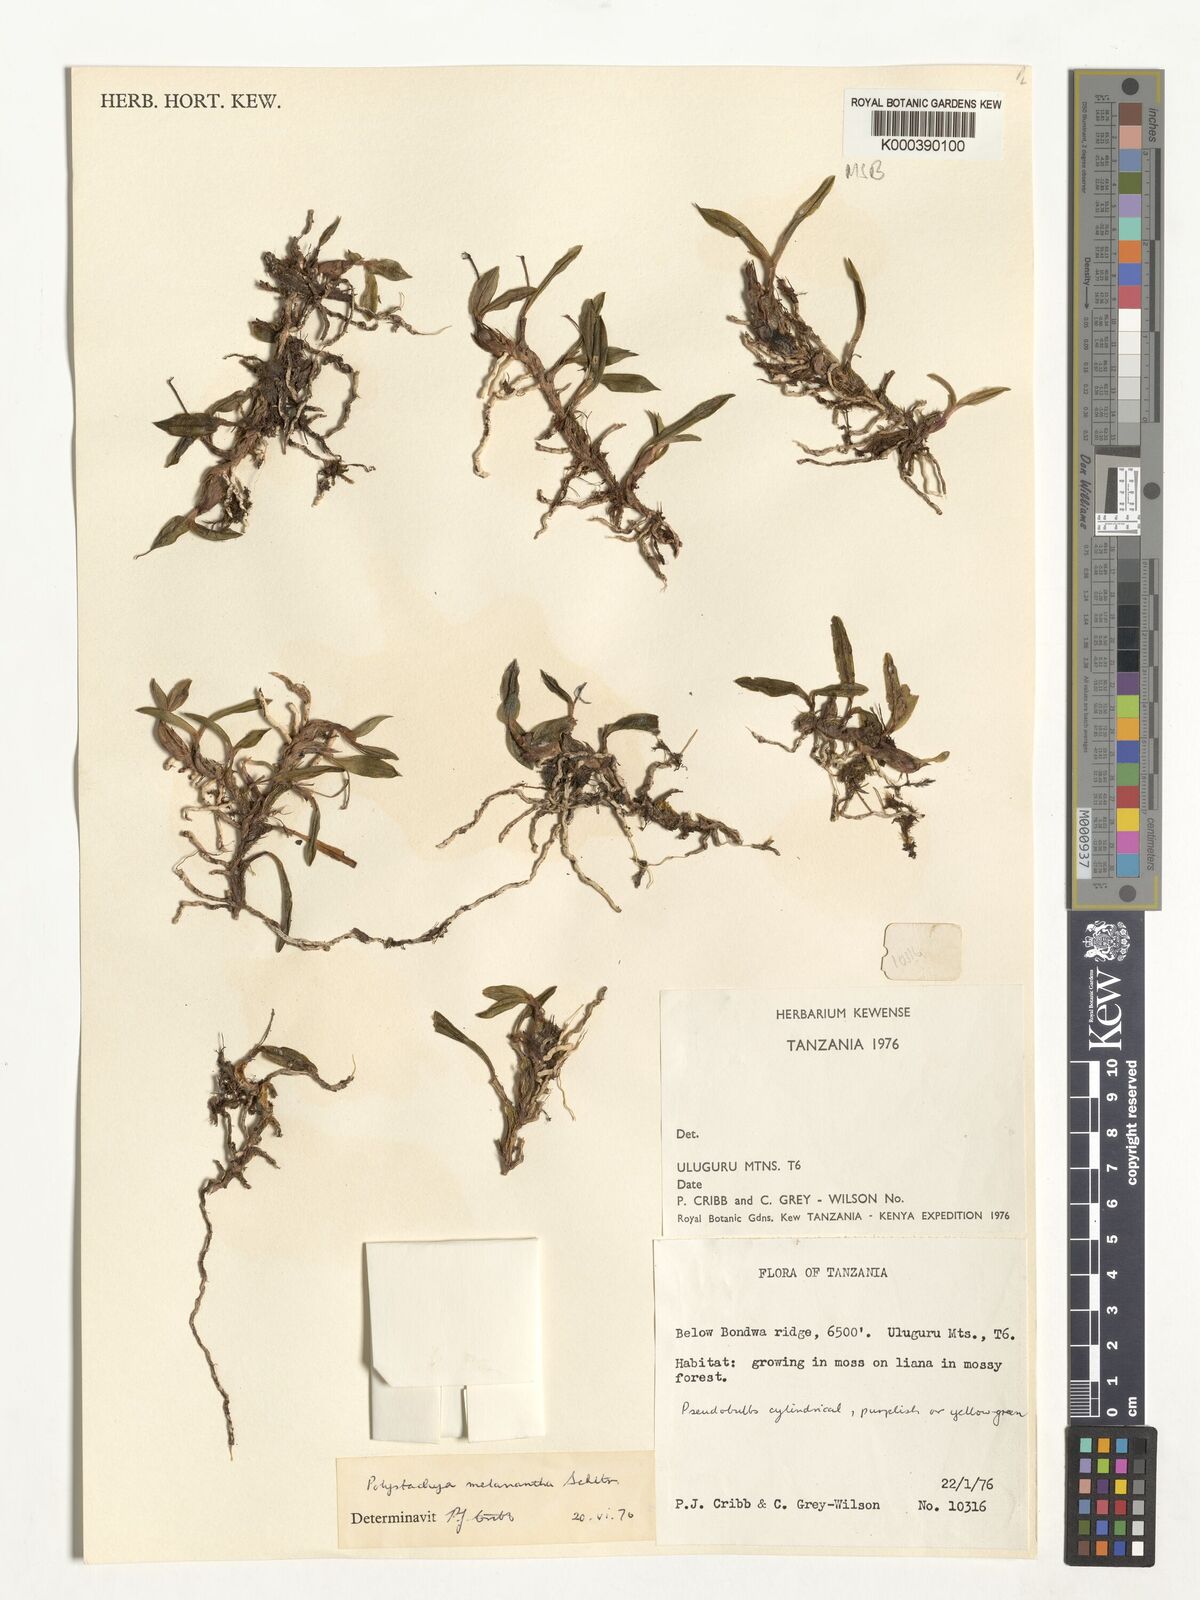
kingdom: Plantae
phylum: Tracheophyta
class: Liliopsida
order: Asparagales
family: Orchidaceae
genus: Polystachya
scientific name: Polystachya melanantha
